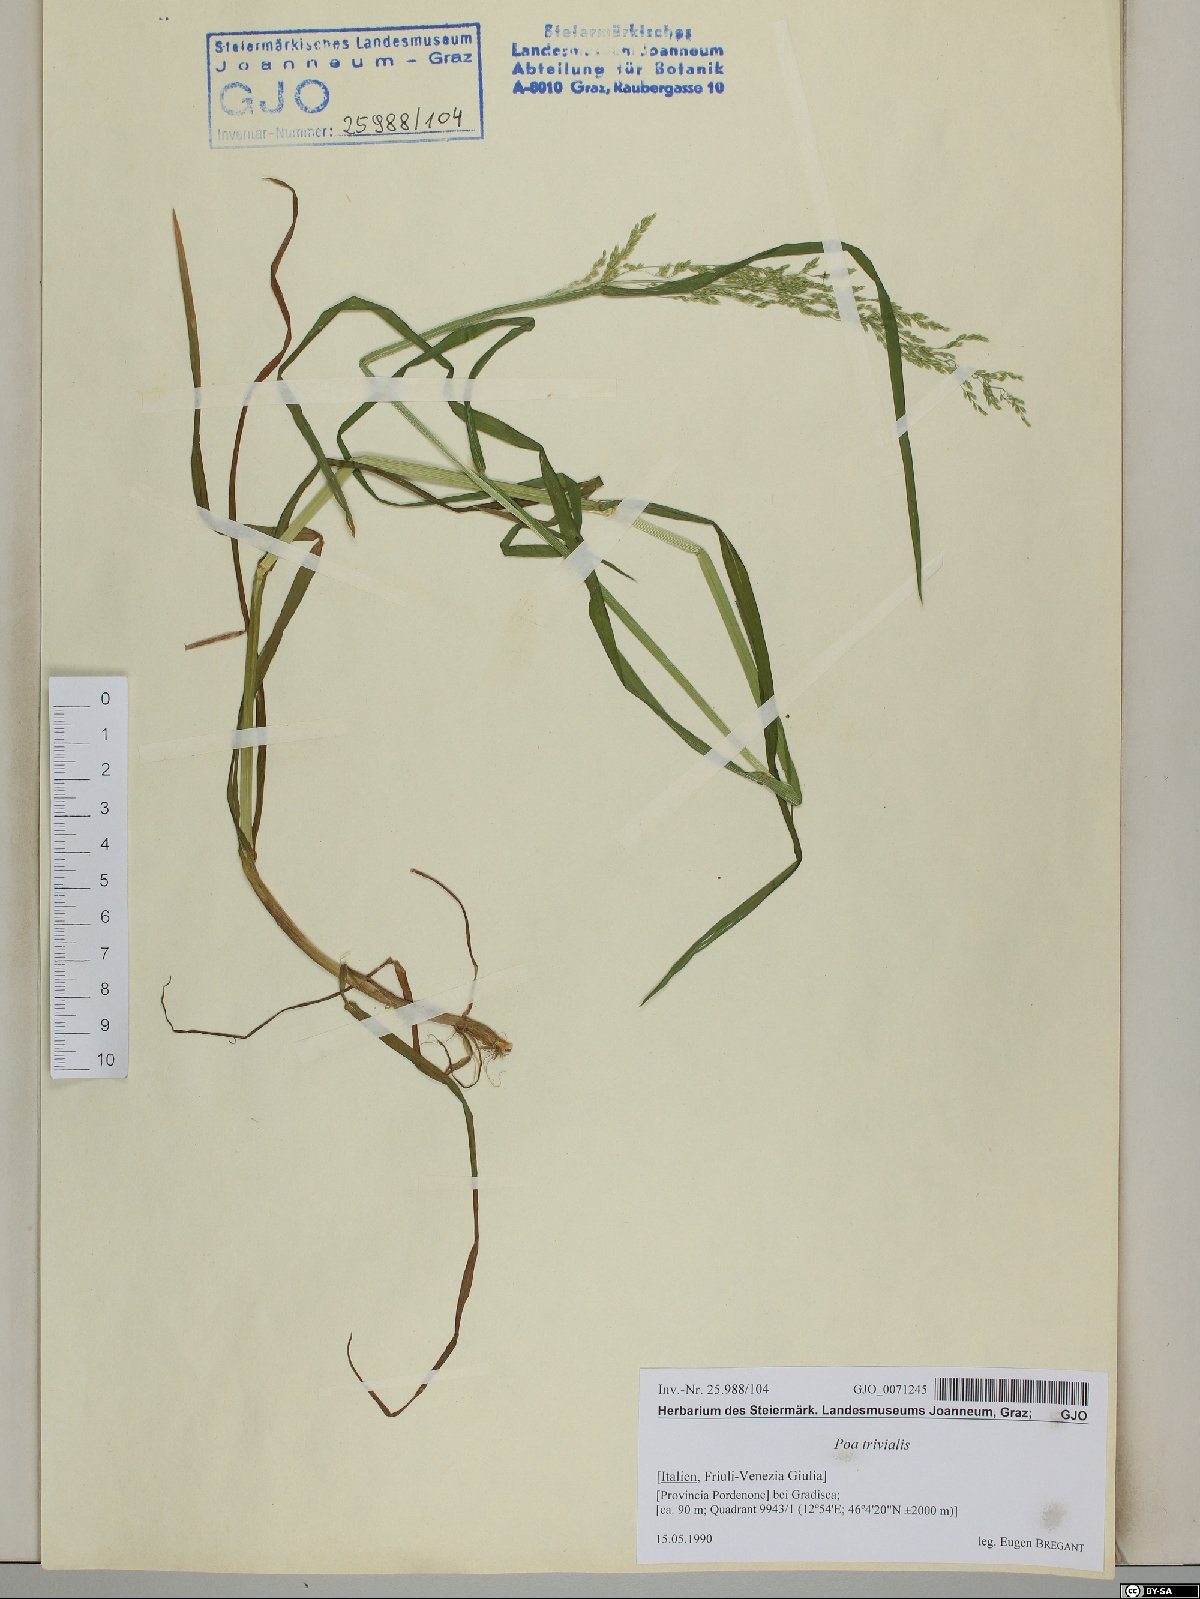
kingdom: Plantae
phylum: Tracheophyta
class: Liliopsida
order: Poales
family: Poaceae
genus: Poa
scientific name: Poa trivialis
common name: Rough bluegrass
